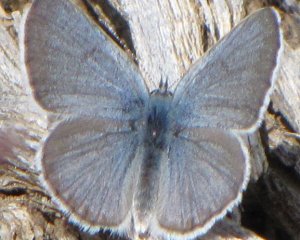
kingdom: Animalia
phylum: Arthropoda
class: Insecta
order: Lepidoptera
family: Lycaenidae
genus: Icaricia
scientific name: Icaricia icarioides
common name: Boisduval's Blue
